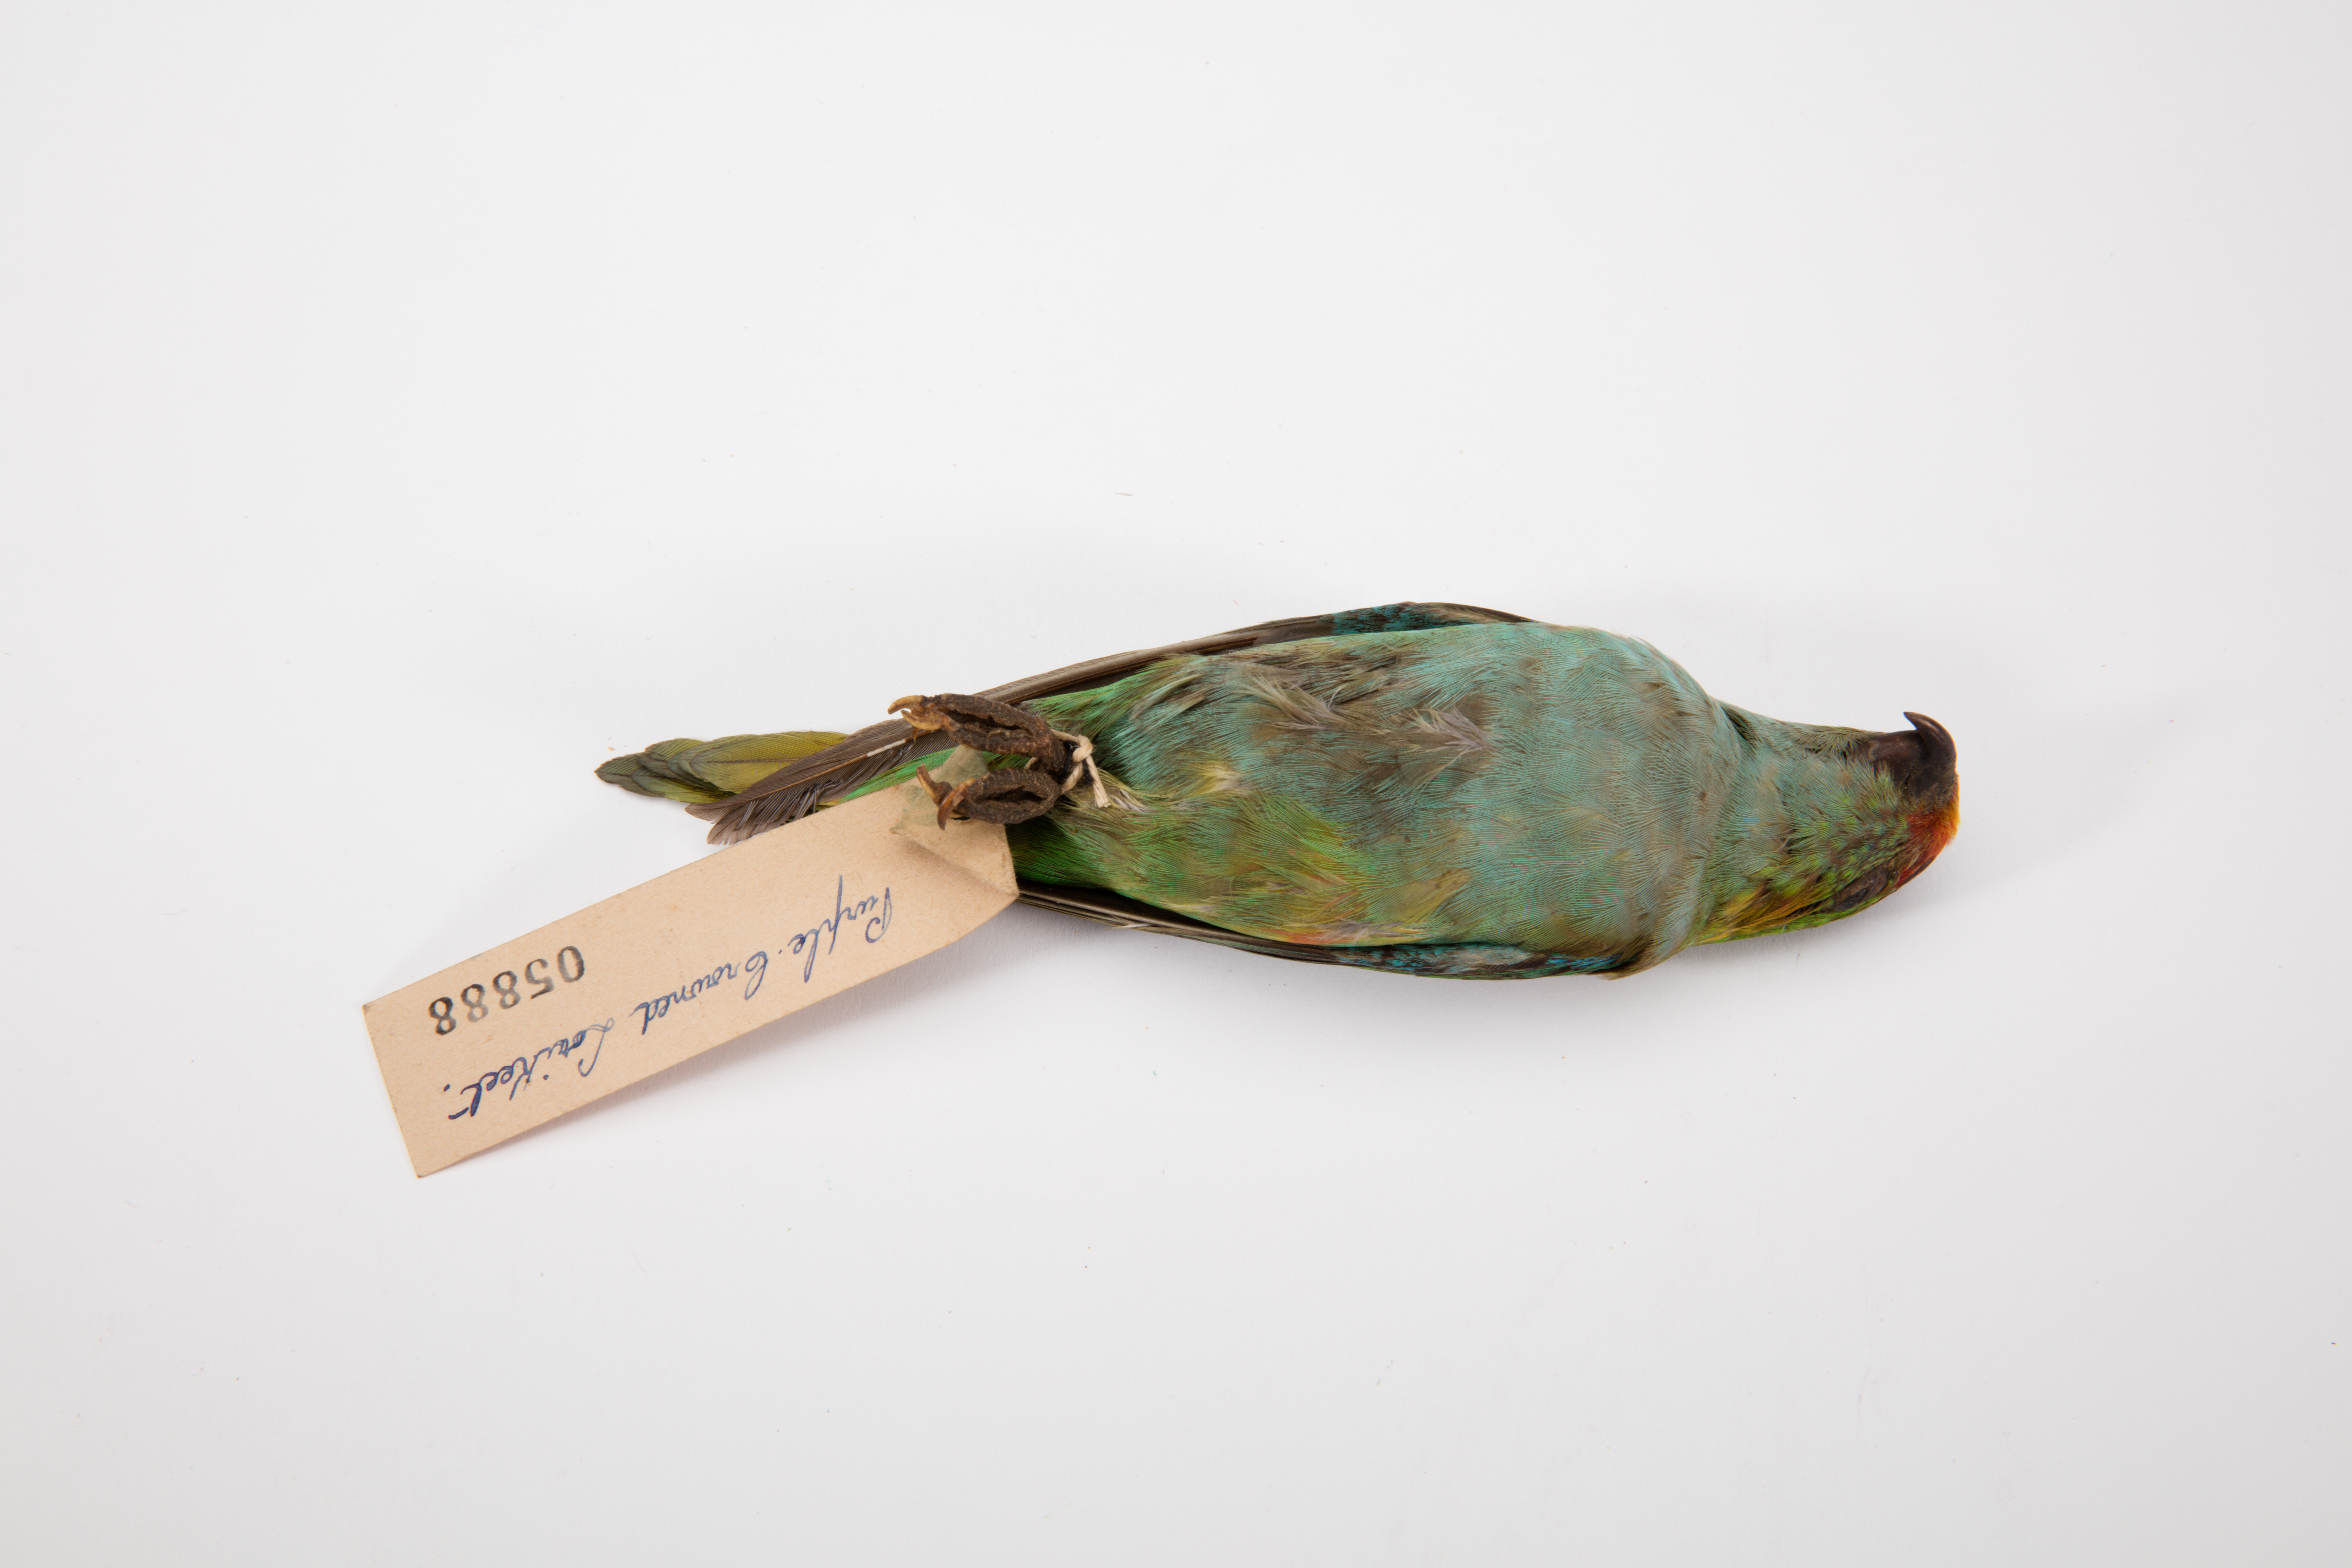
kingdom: Animalia
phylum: Chordata
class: Aves
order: Psittaciformes
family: Psittacidae
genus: Glossopsitta
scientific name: Glossopsitta porphyrocephala
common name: Purple-crowned lorikeet
